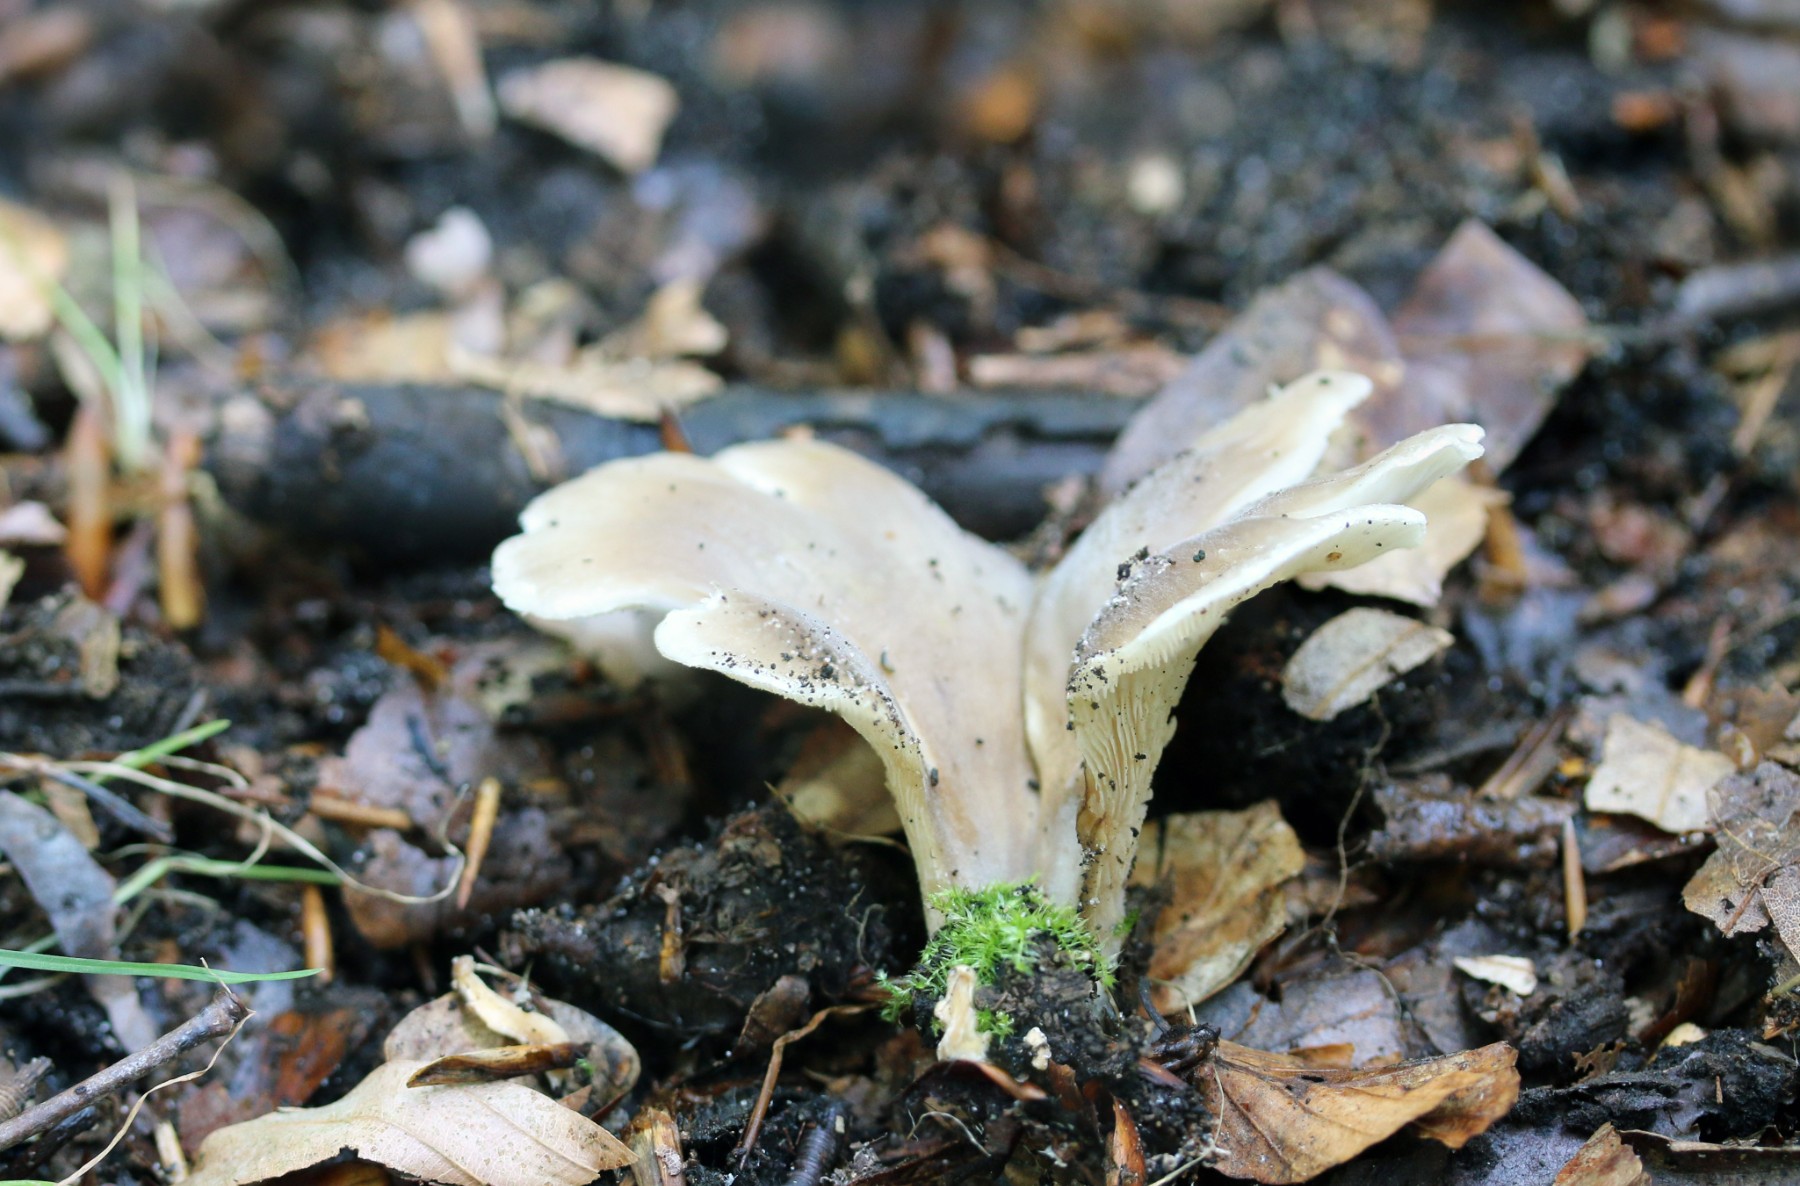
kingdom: Fungi
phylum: Basidiomycota
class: Agaricomycetes
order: Agaricales
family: Tricholomataceae
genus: Paralepista
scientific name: Paralepista flaccida
